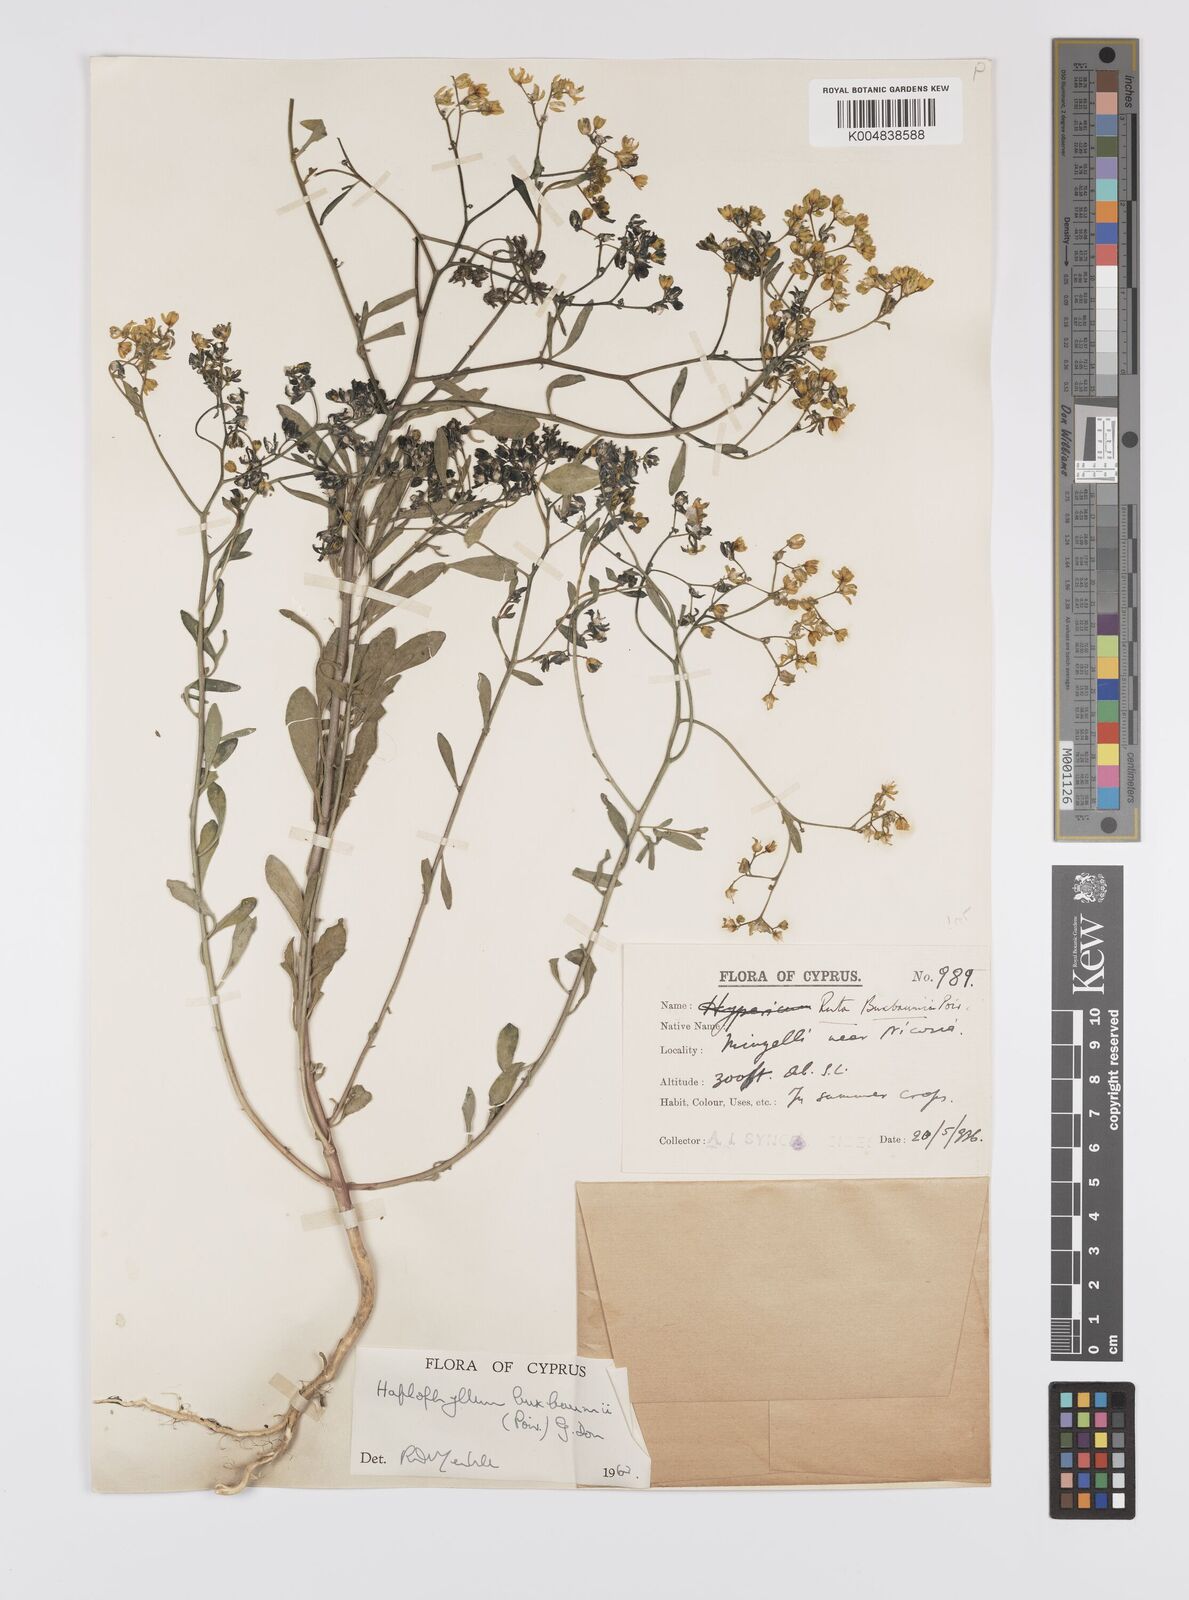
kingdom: Plantae
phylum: Tracheophyta
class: Magnoliopsida
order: Sapindales
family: Rutaceae
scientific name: Rutaceae
